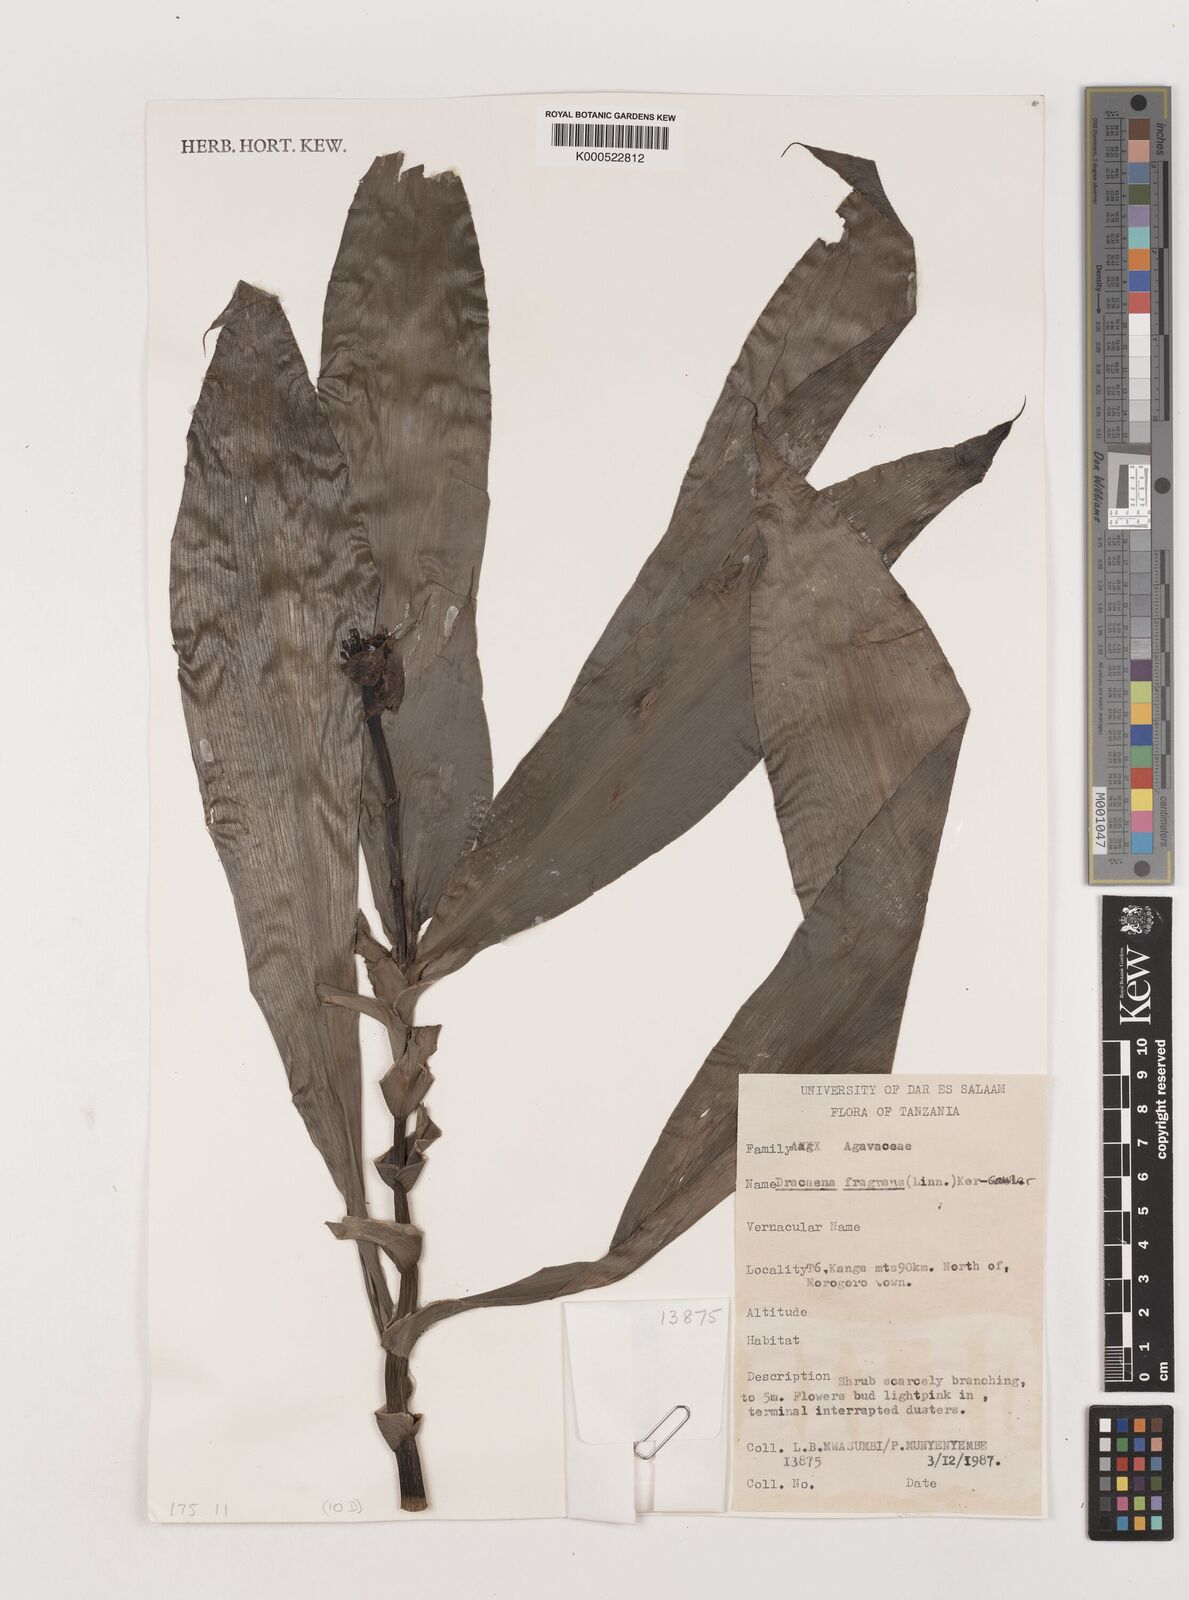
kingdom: Plantae
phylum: Tracheophyta
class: Liliopsida
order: Asparagales
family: Asparagaceae
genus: Dracaena
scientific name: Dracaena fragrans
